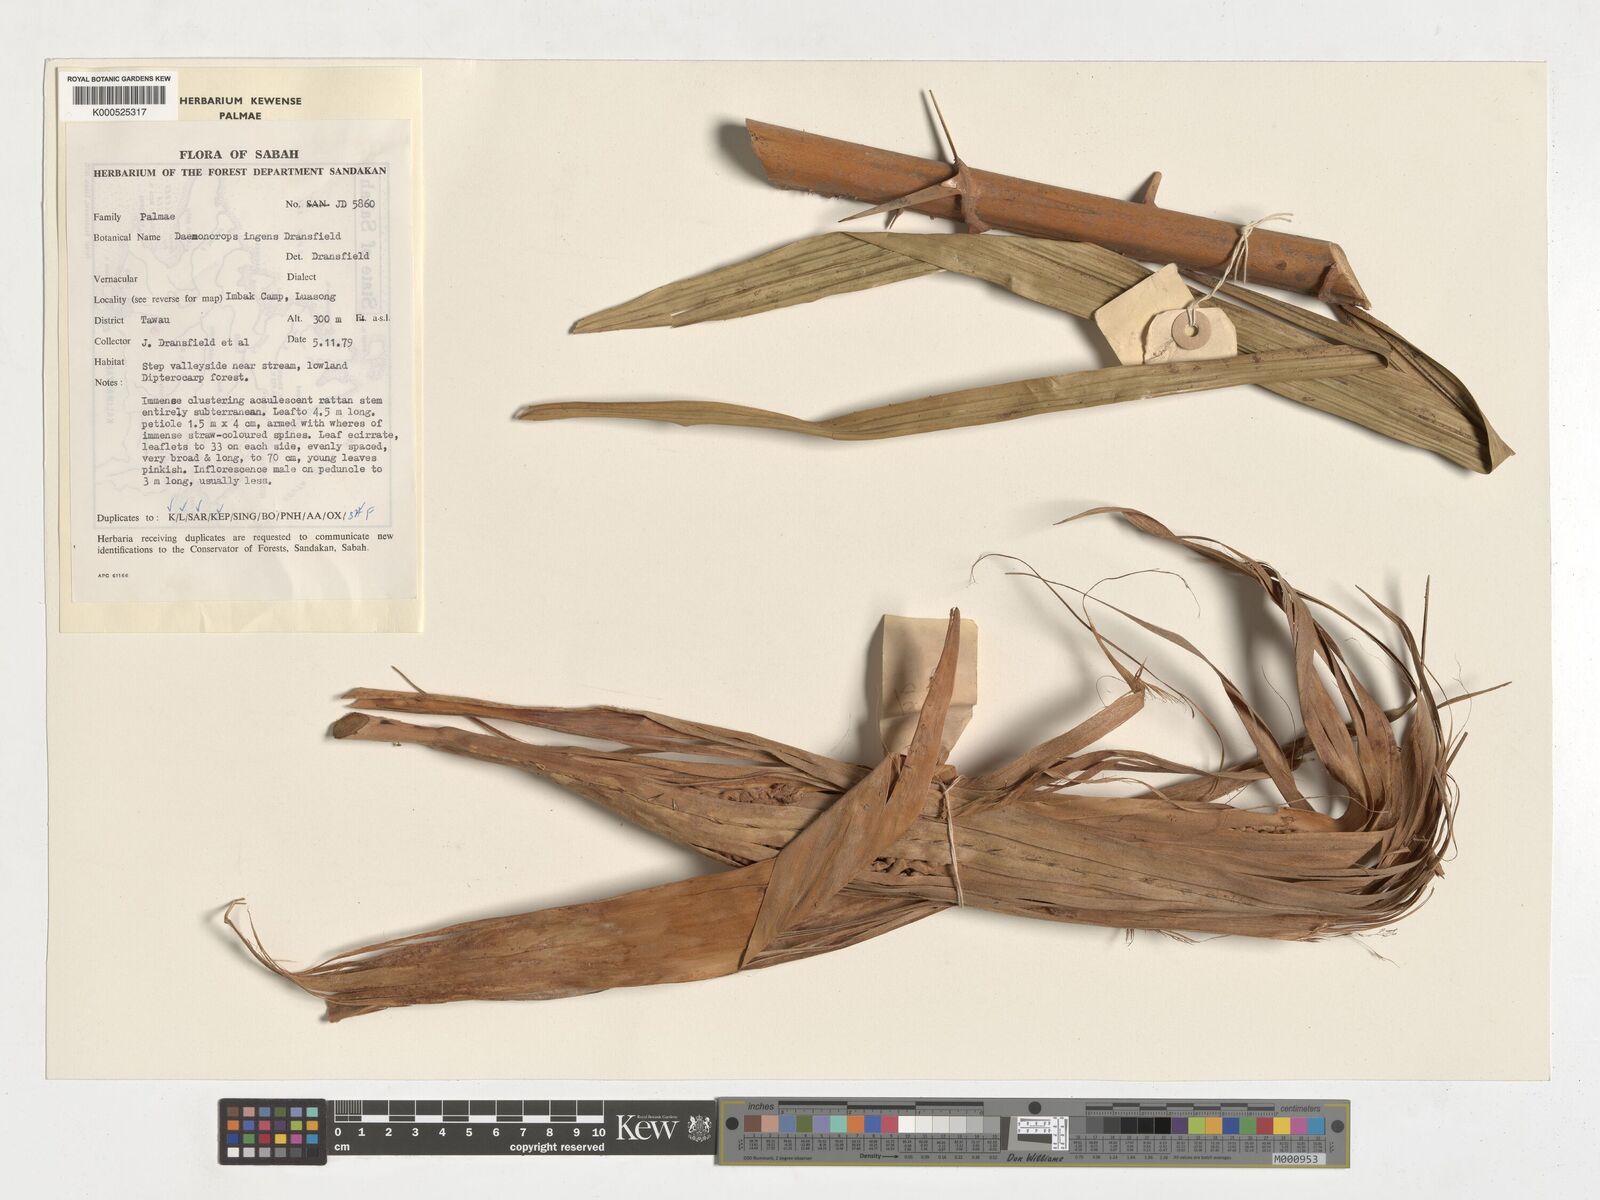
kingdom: Plantae
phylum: Tracheophyta
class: Liliopsida
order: Arecales
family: Arecaceae
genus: Calamus
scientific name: Calamus ingens
